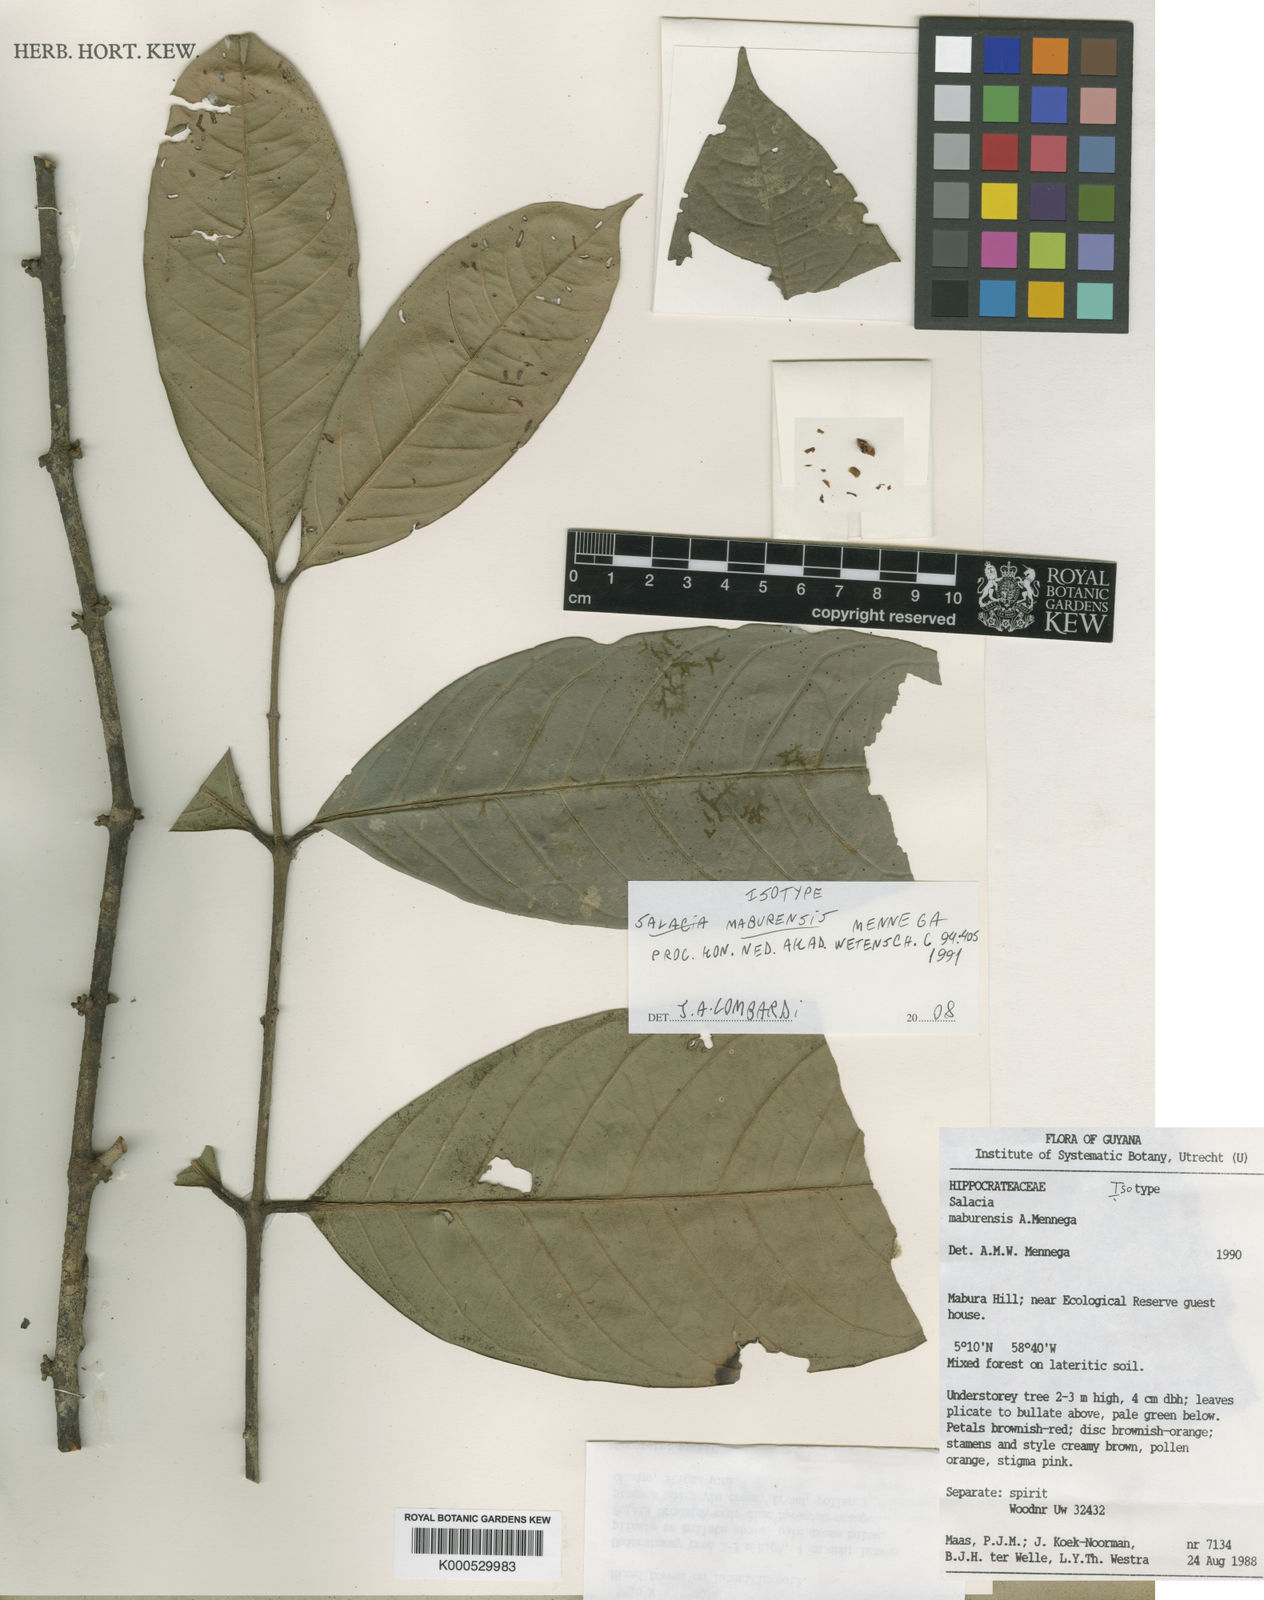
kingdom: Plantae
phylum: Tracheophyta
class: Magnoliopsida
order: Celastrales
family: Celastraceae
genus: Salacia
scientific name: Salacia maburensis
